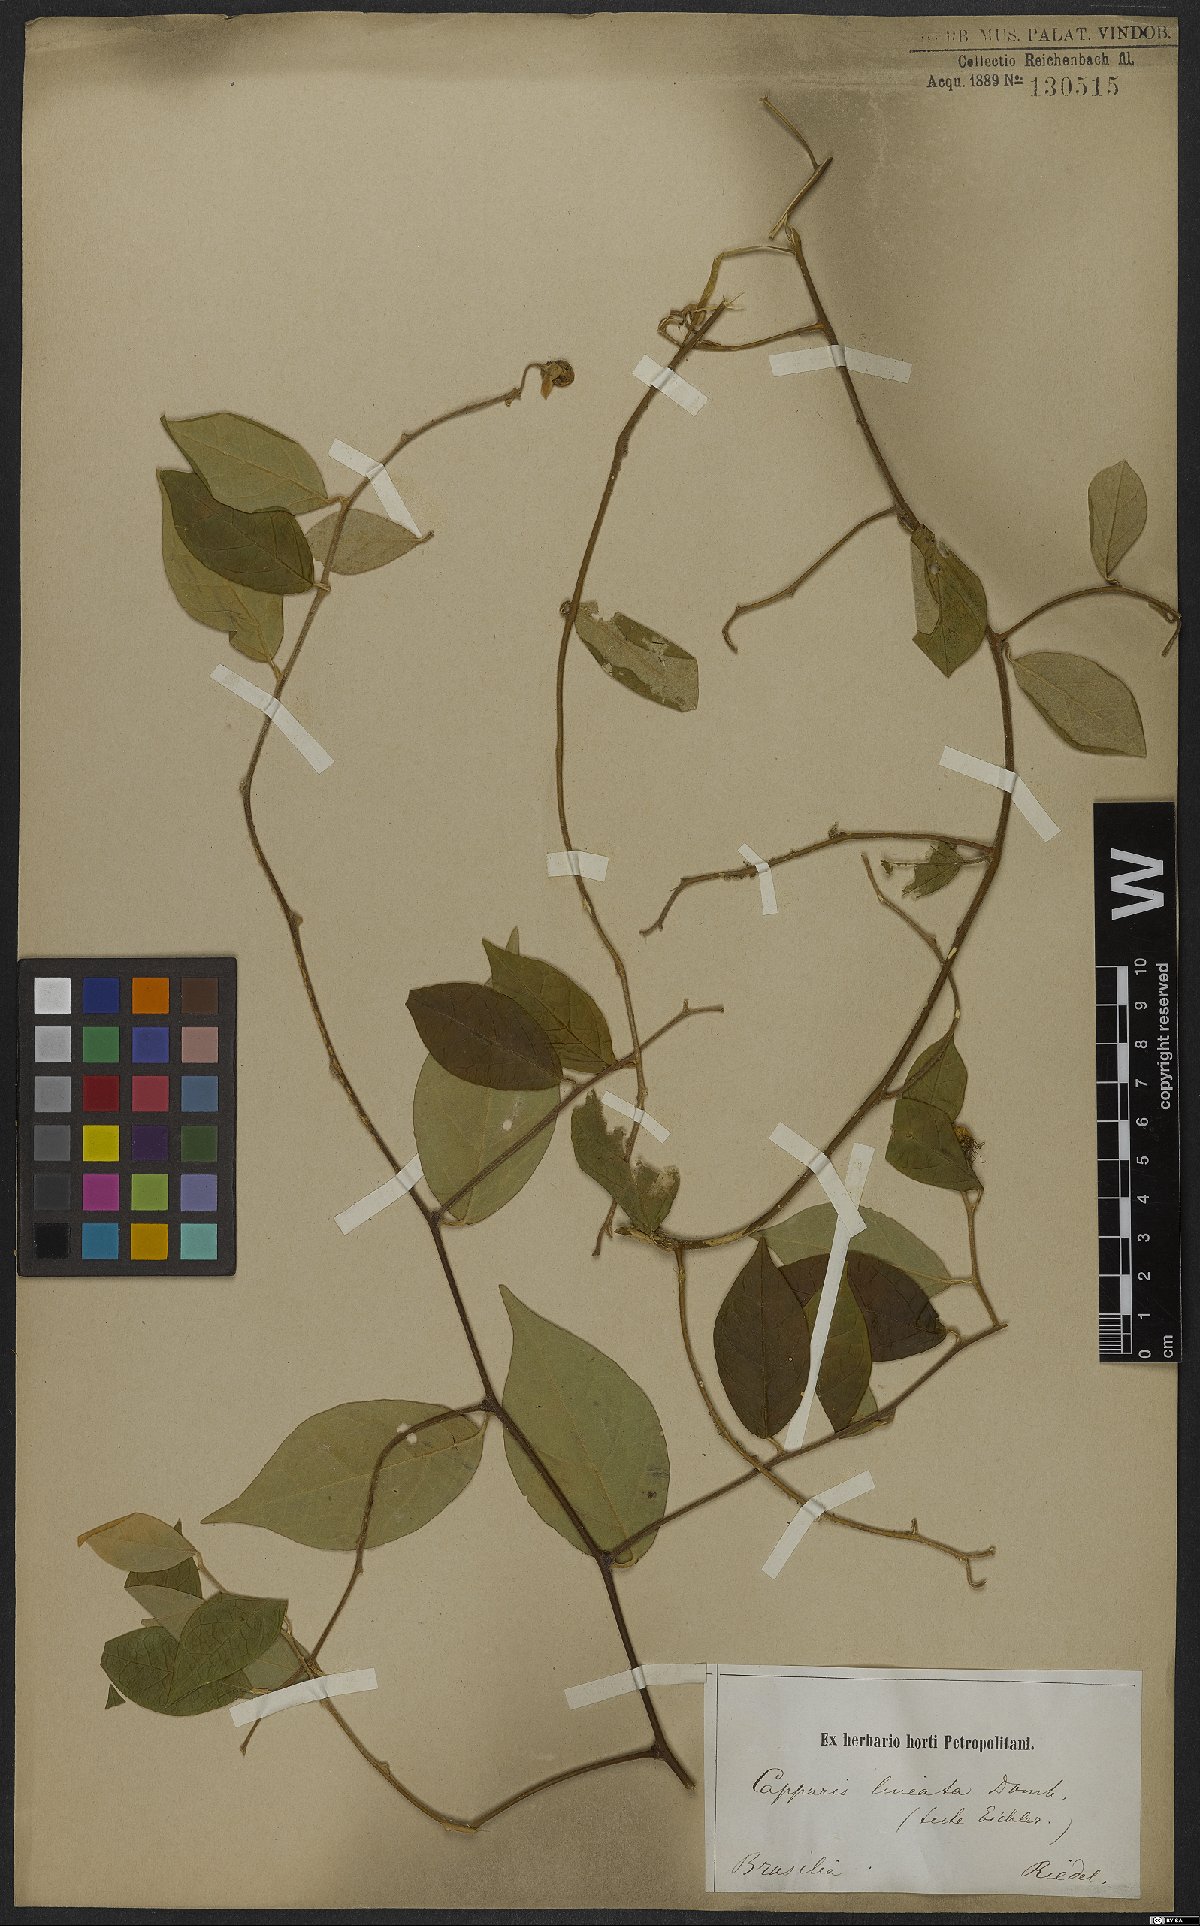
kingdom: Plantae
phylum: Tracheophyta
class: Magnoliopsida
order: Brassicales
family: Capparaceae
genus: Mesocapparis
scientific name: Mesocapparis lineata
